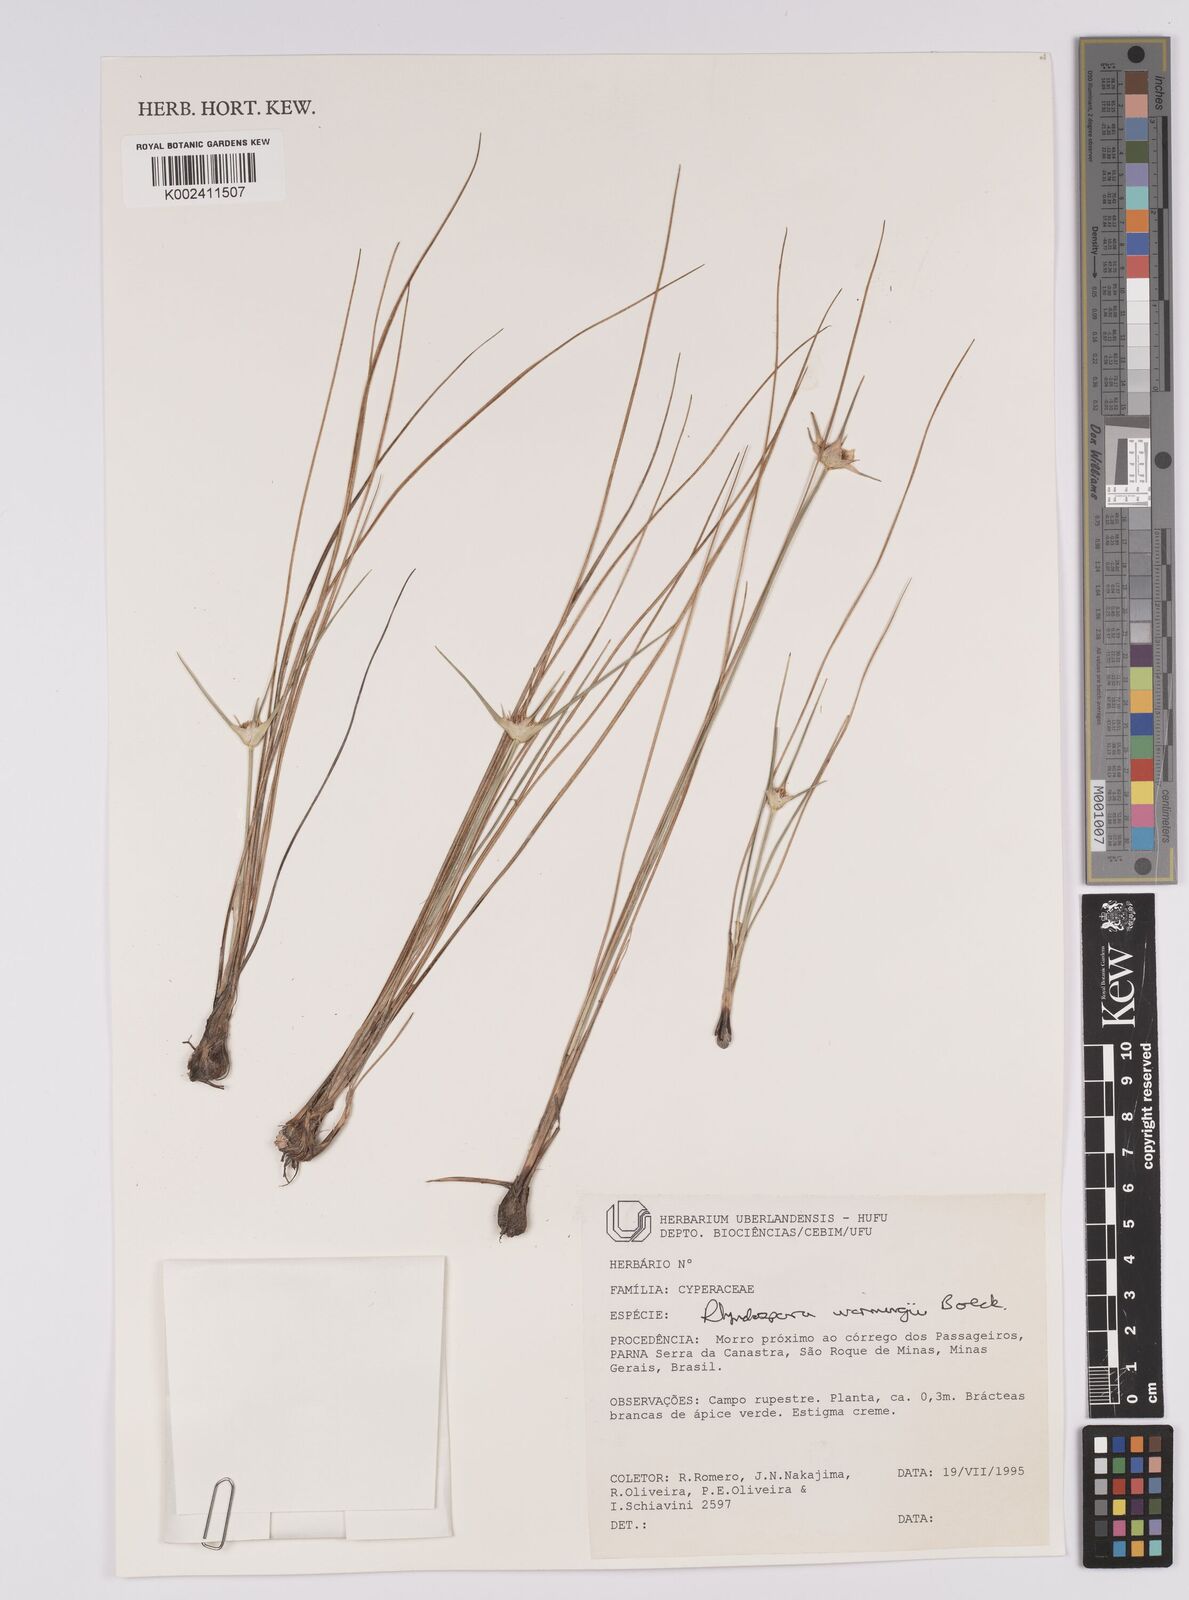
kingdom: Plantae
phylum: Tracheophyta
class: Liliopsida
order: Poales
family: Cyperaceae
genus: Rhynchospora
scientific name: Rhynchospora warmingii
